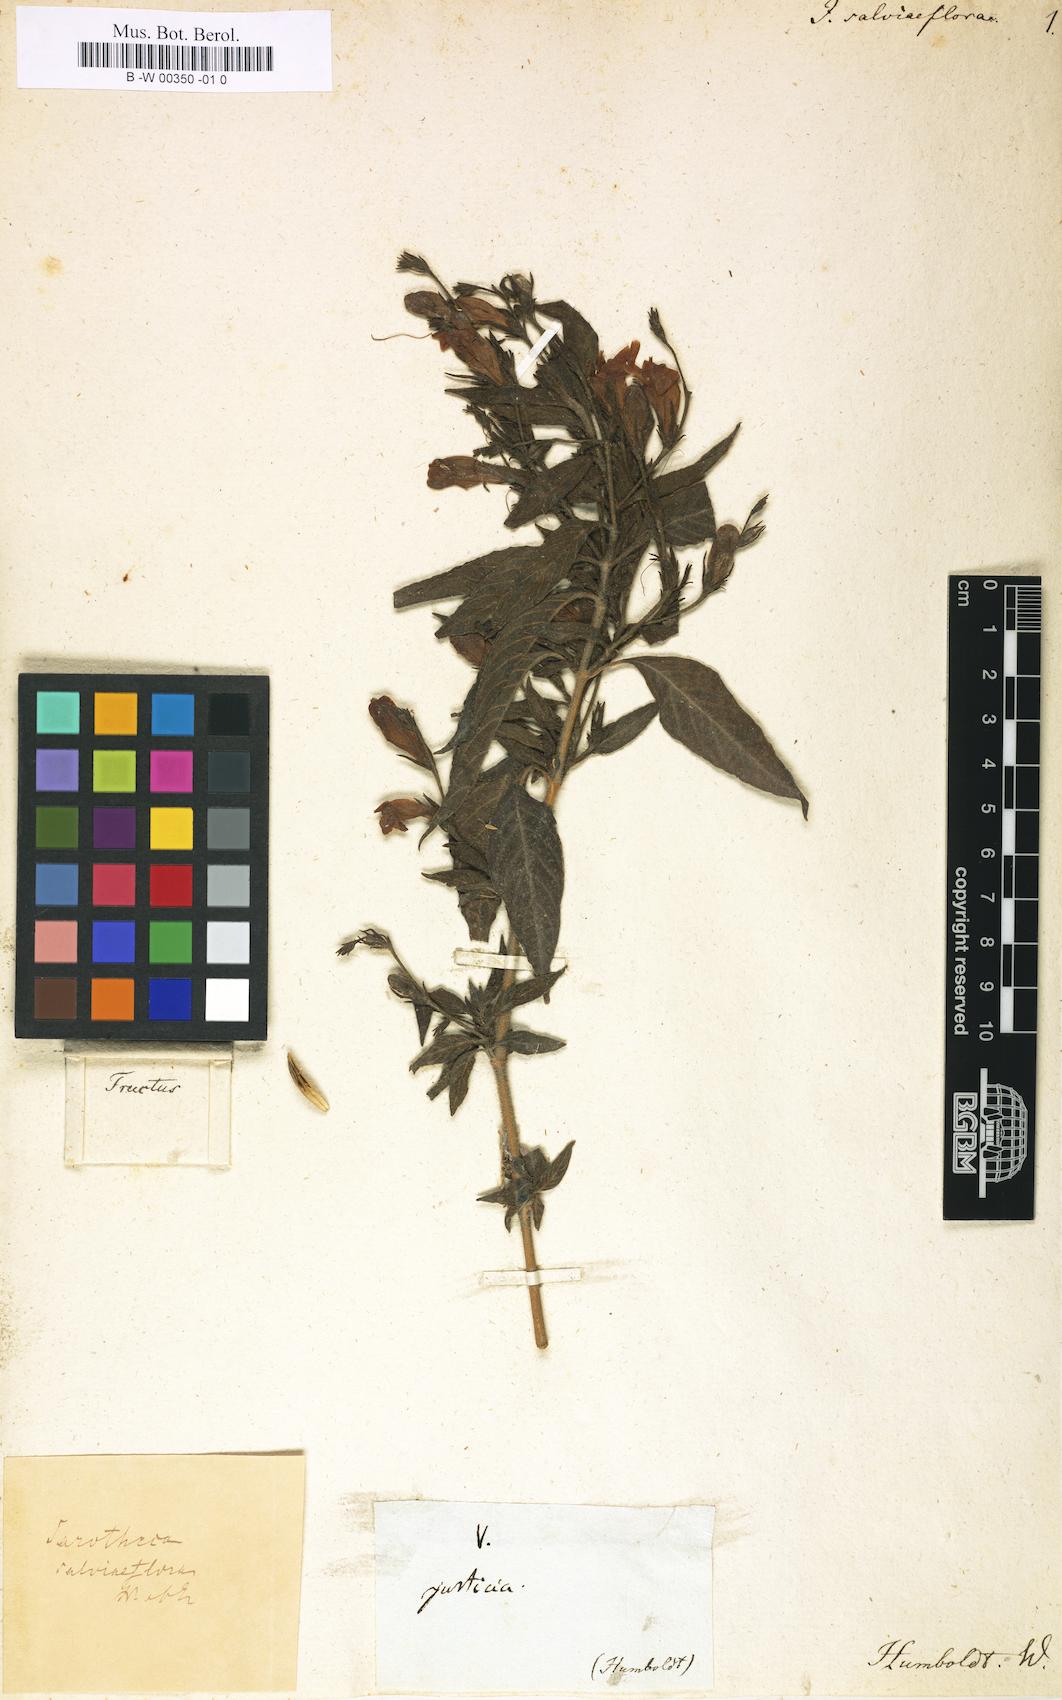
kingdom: Plantae
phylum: Tracheophyta
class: Magnoliopsida
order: Lamiales
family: Acanthaceae
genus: Justicia
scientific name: Justicia salviiflora
